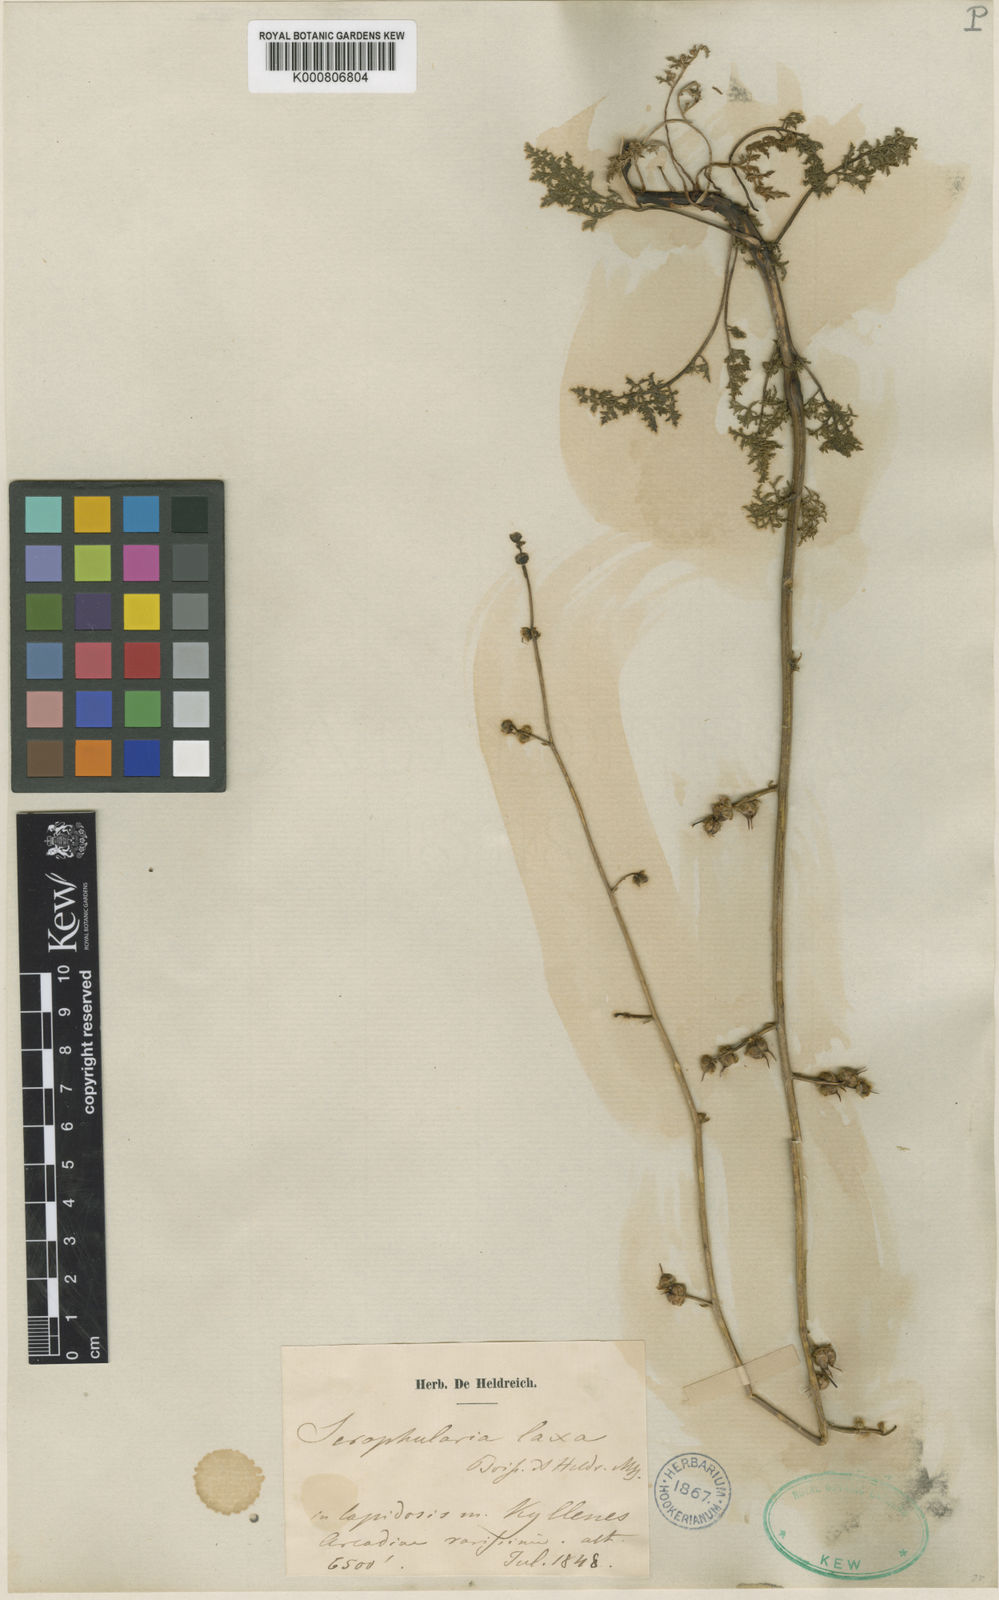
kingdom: Plantae
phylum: Tracheophyta
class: Magnoliopsida
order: Lamiales
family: Scrophulariaceae
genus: Scrophularia
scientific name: Scrophularia myriophylla
